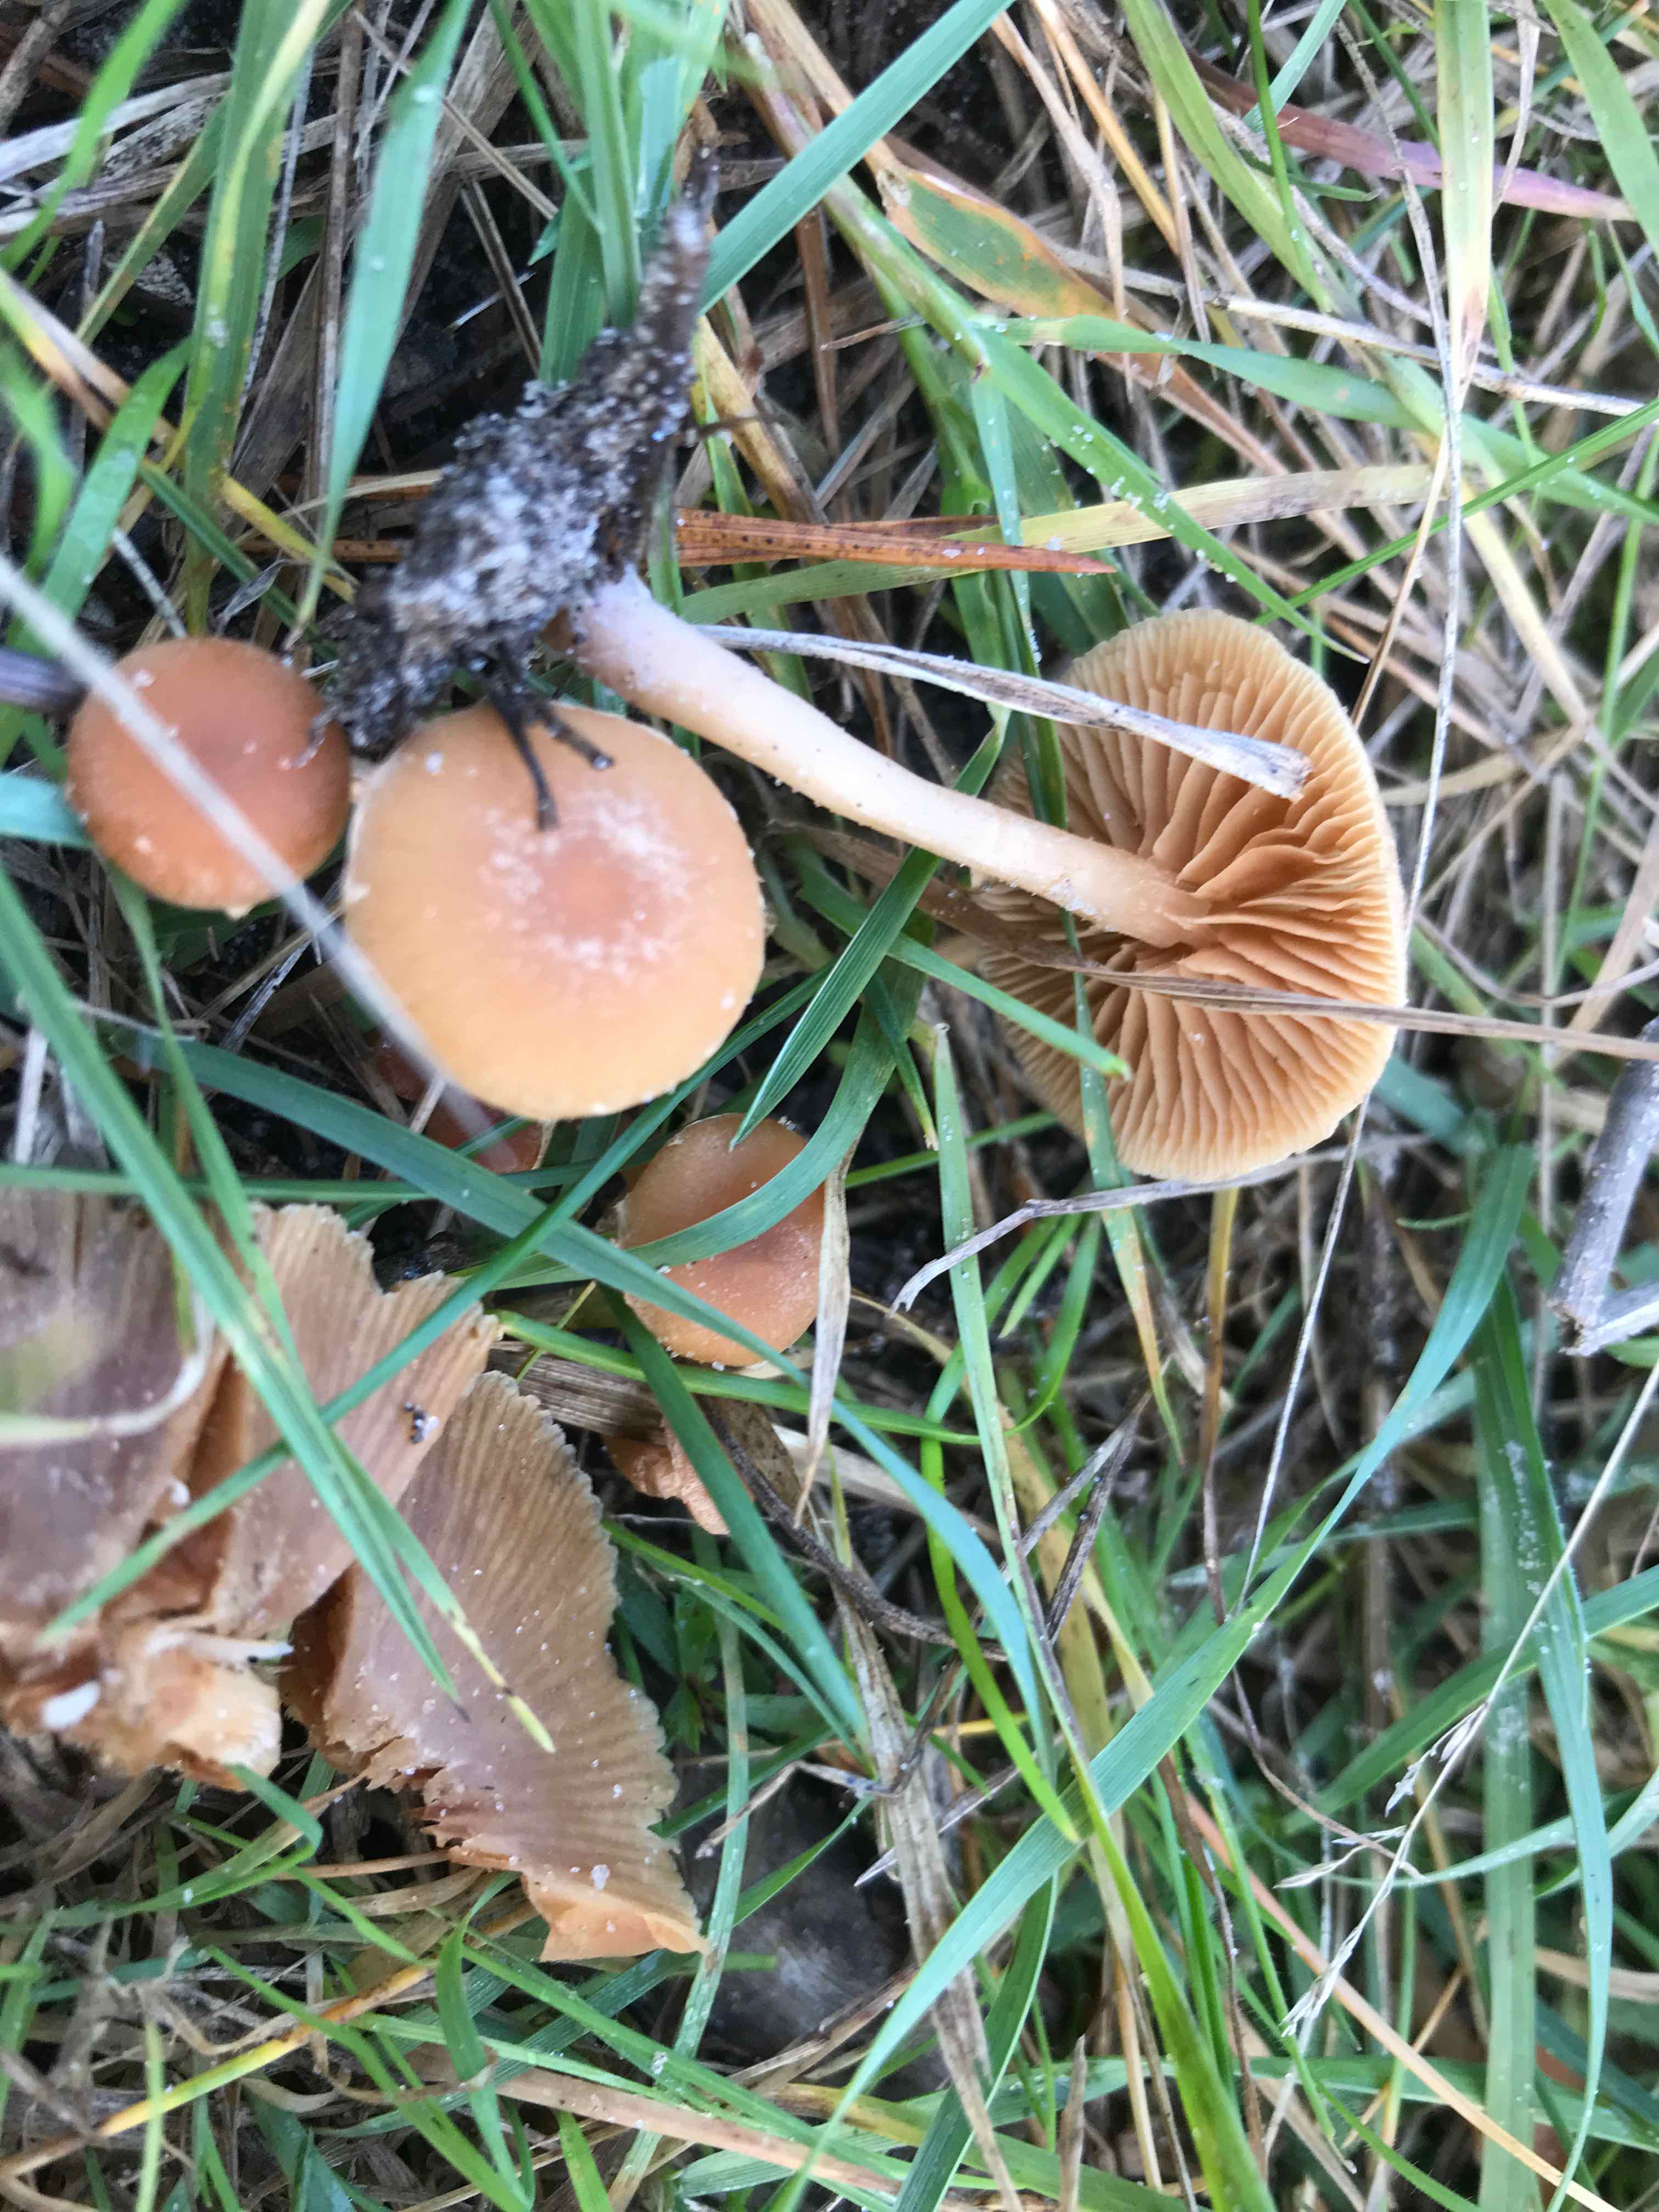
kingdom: Fungi
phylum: Basidiomycota
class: Agaricomycetes
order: Agaricales
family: Tubariaceae
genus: Tubaria
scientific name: Tubaria furfuracea
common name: kliddet fnughat
